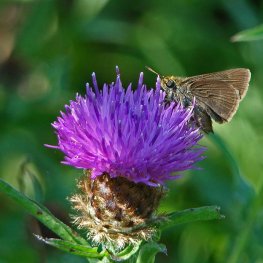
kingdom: Animalia
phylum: Arthropoda
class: Insecta
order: Lepidoptera
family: Hesperiidae
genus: Euphyes
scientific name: Euphyes vestris
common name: Dun Skipper
